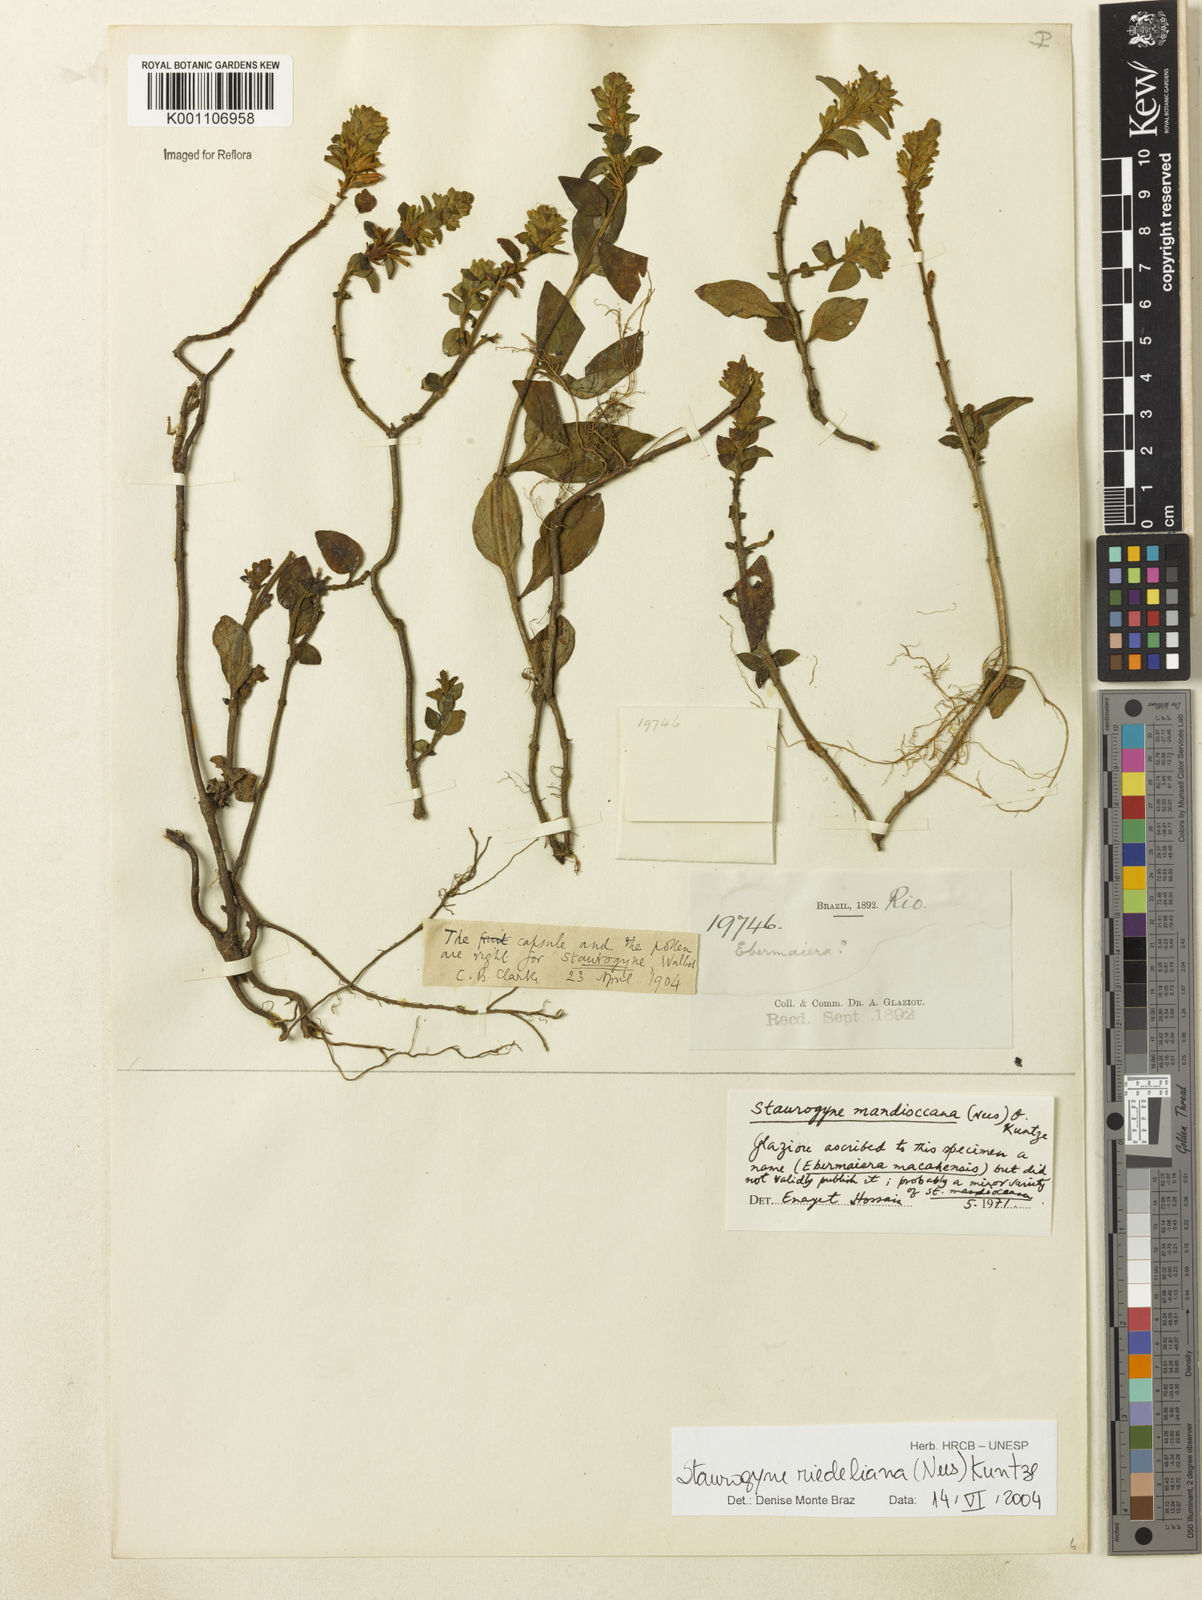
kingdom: Plantae
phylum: Tracheophyta
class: Magnoliopsida
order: Lamiales
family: Acanthaceae
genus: Staurogyne
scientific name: Staurogyne riedeliana
